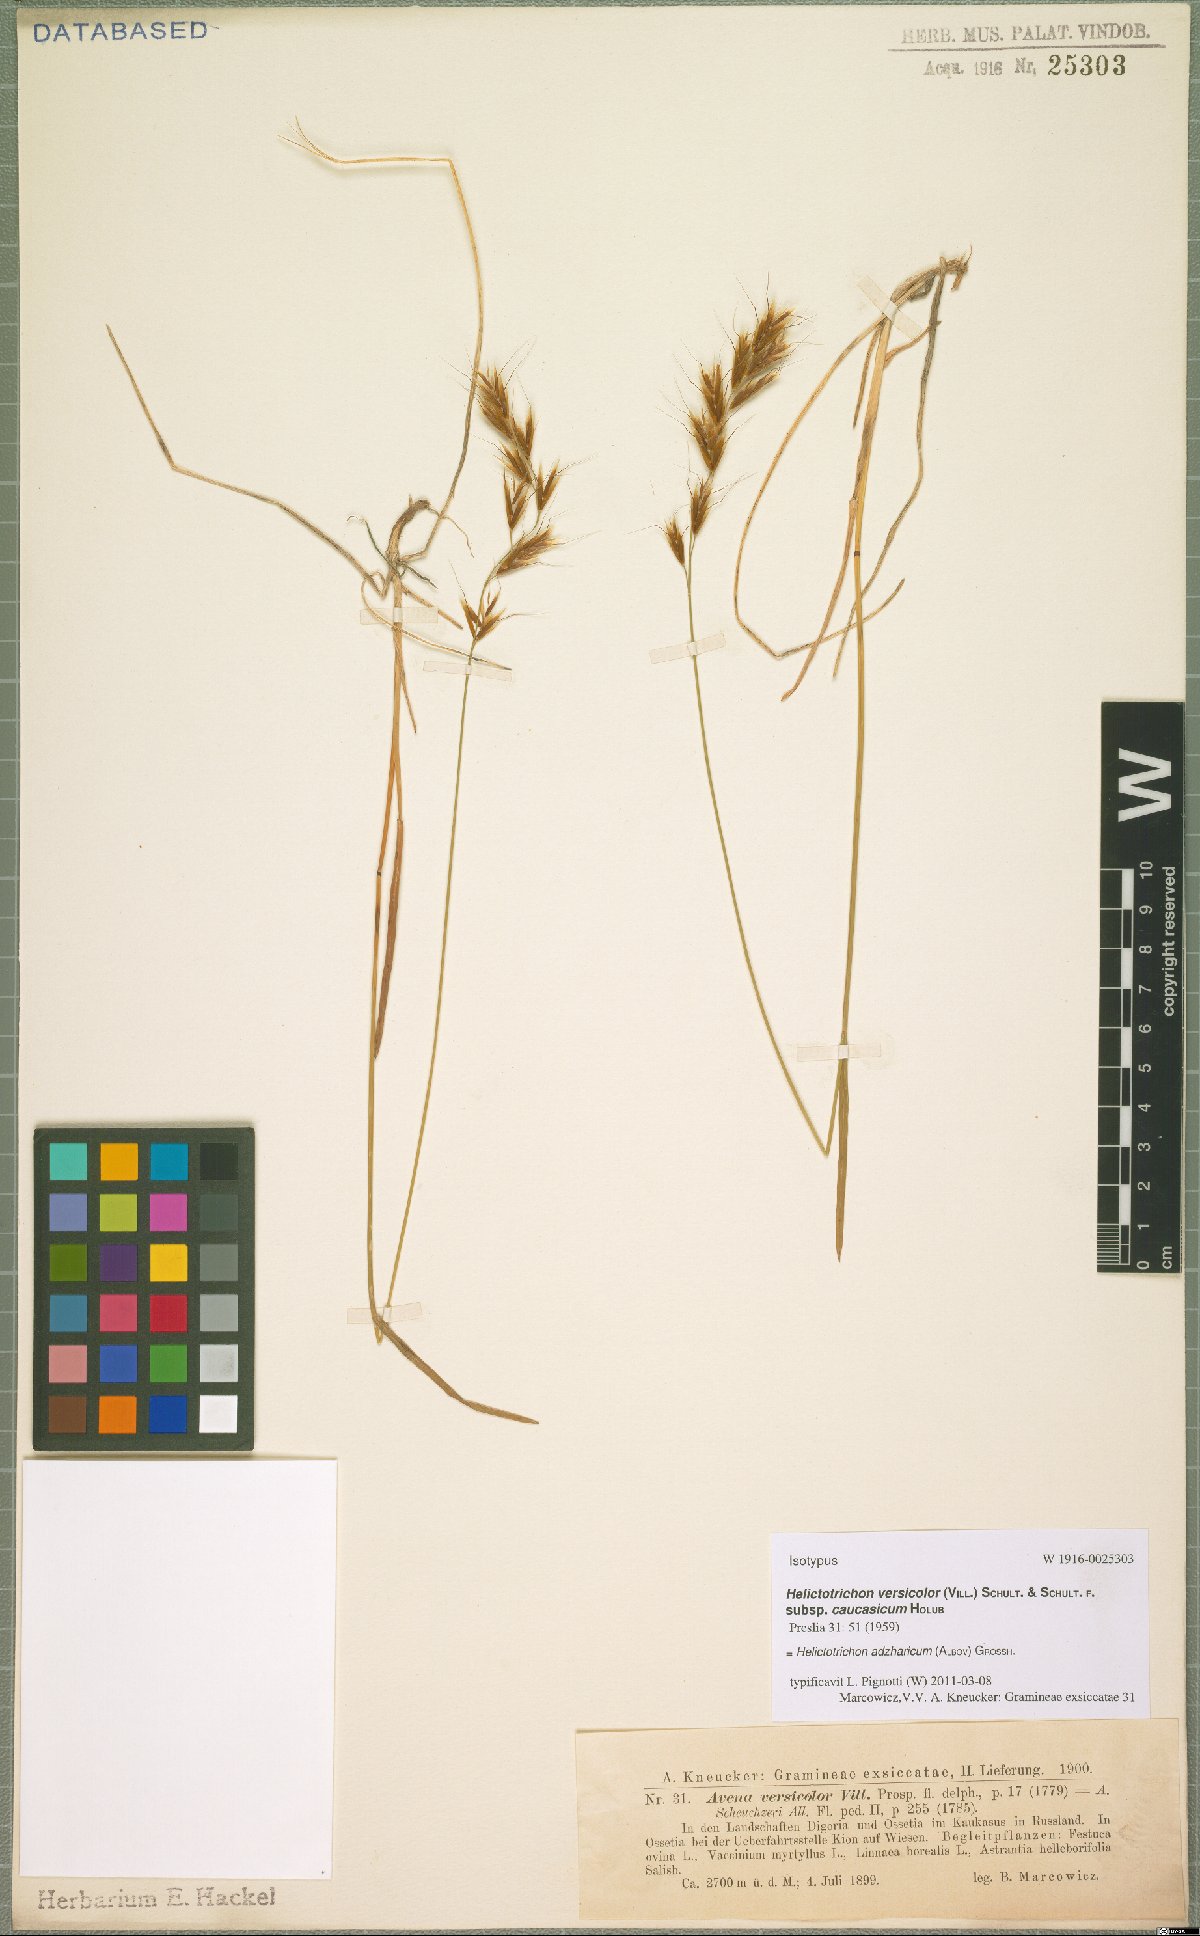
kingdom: Plantae
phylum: Tracheophyta
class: Liliopsida
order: Poales
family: Poaceae
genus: Helictochloa
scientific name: Helictochloa versicolor
